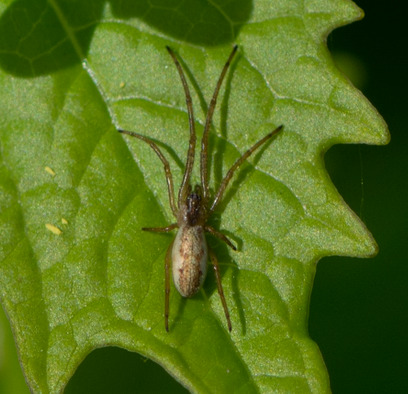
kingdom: Animalia
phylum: Arthropoda
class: Arachnida
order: Araneae
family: Tetragnathidae
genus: Tetragnatha
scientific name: Tetragnatha
